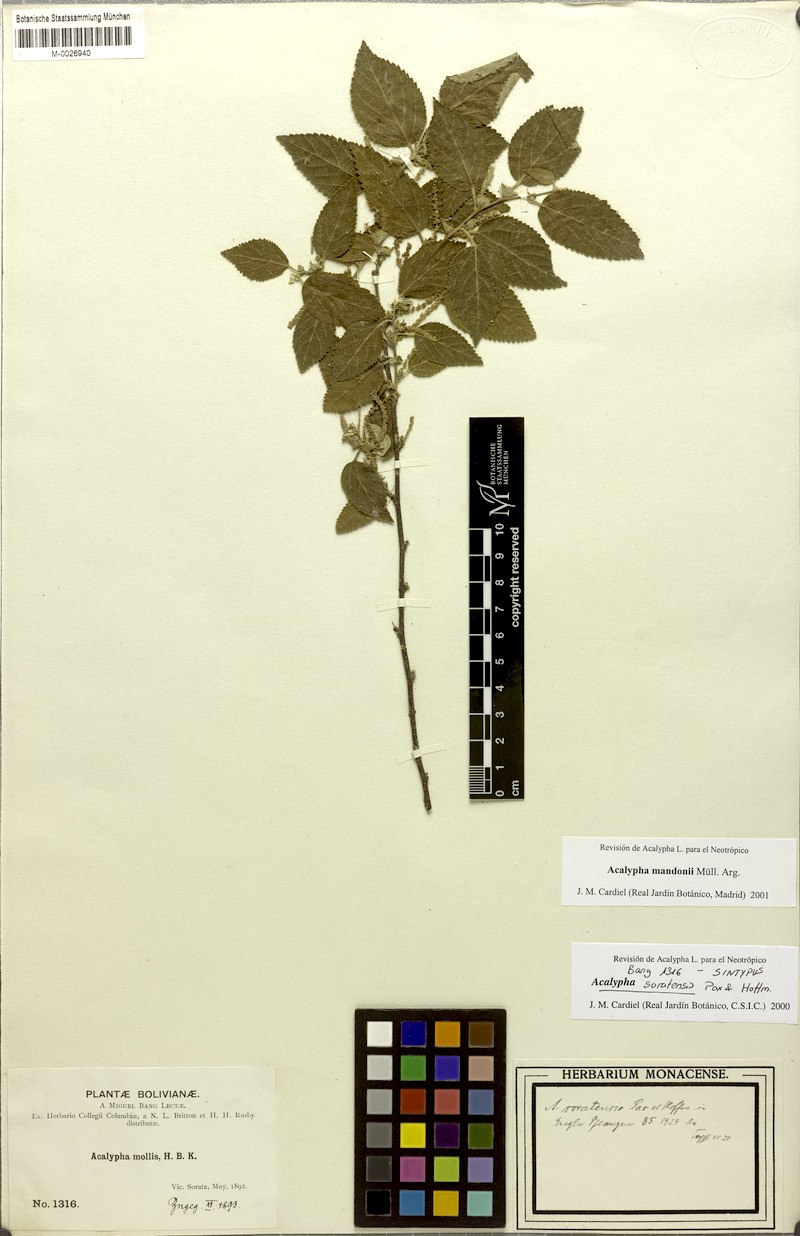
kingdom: Plantae
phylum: Tracheophyta
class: Magnoliopsida
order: Malpighiales
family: Euphorbiaceae
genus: Acalypha
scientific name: Acalypha reflexa
